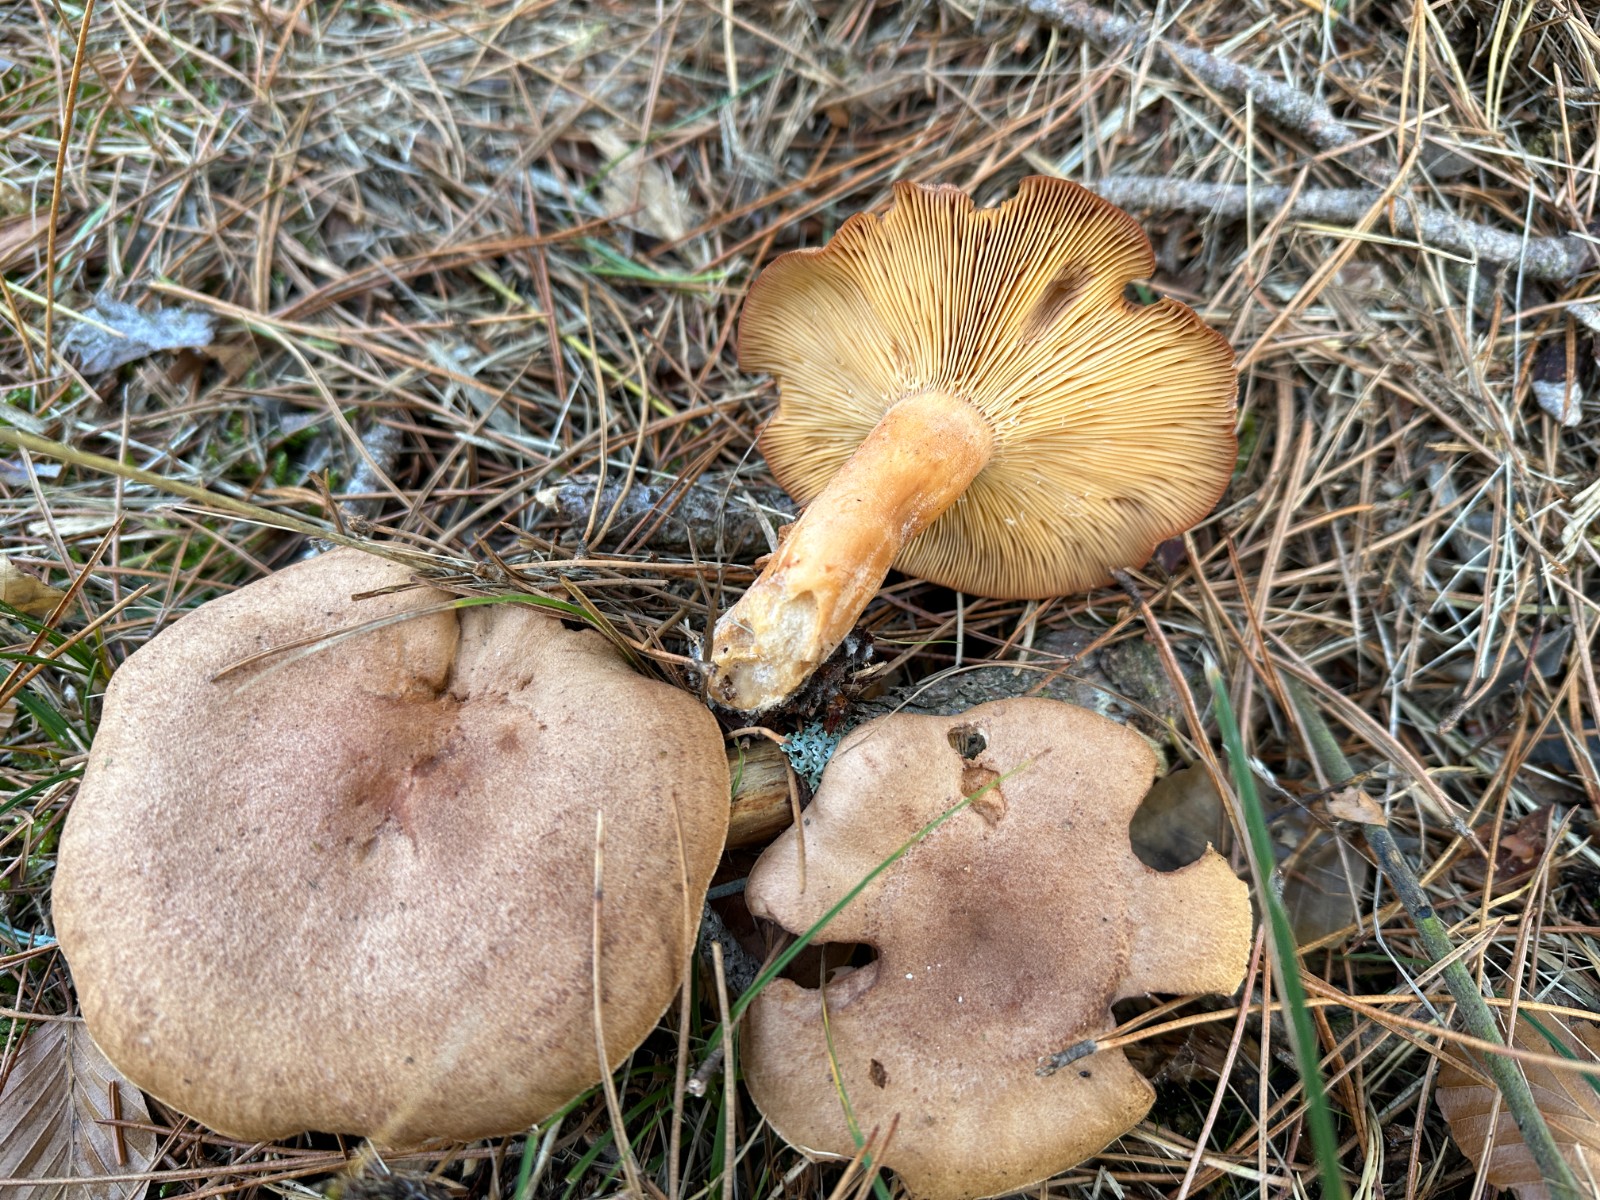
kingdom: Fungi
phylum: Basidiomycota
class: Agaricomycetes
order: Russulales
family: Russulaceae
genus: Lactarius
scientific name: Lactarius helvus
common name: mose-mælkehat
